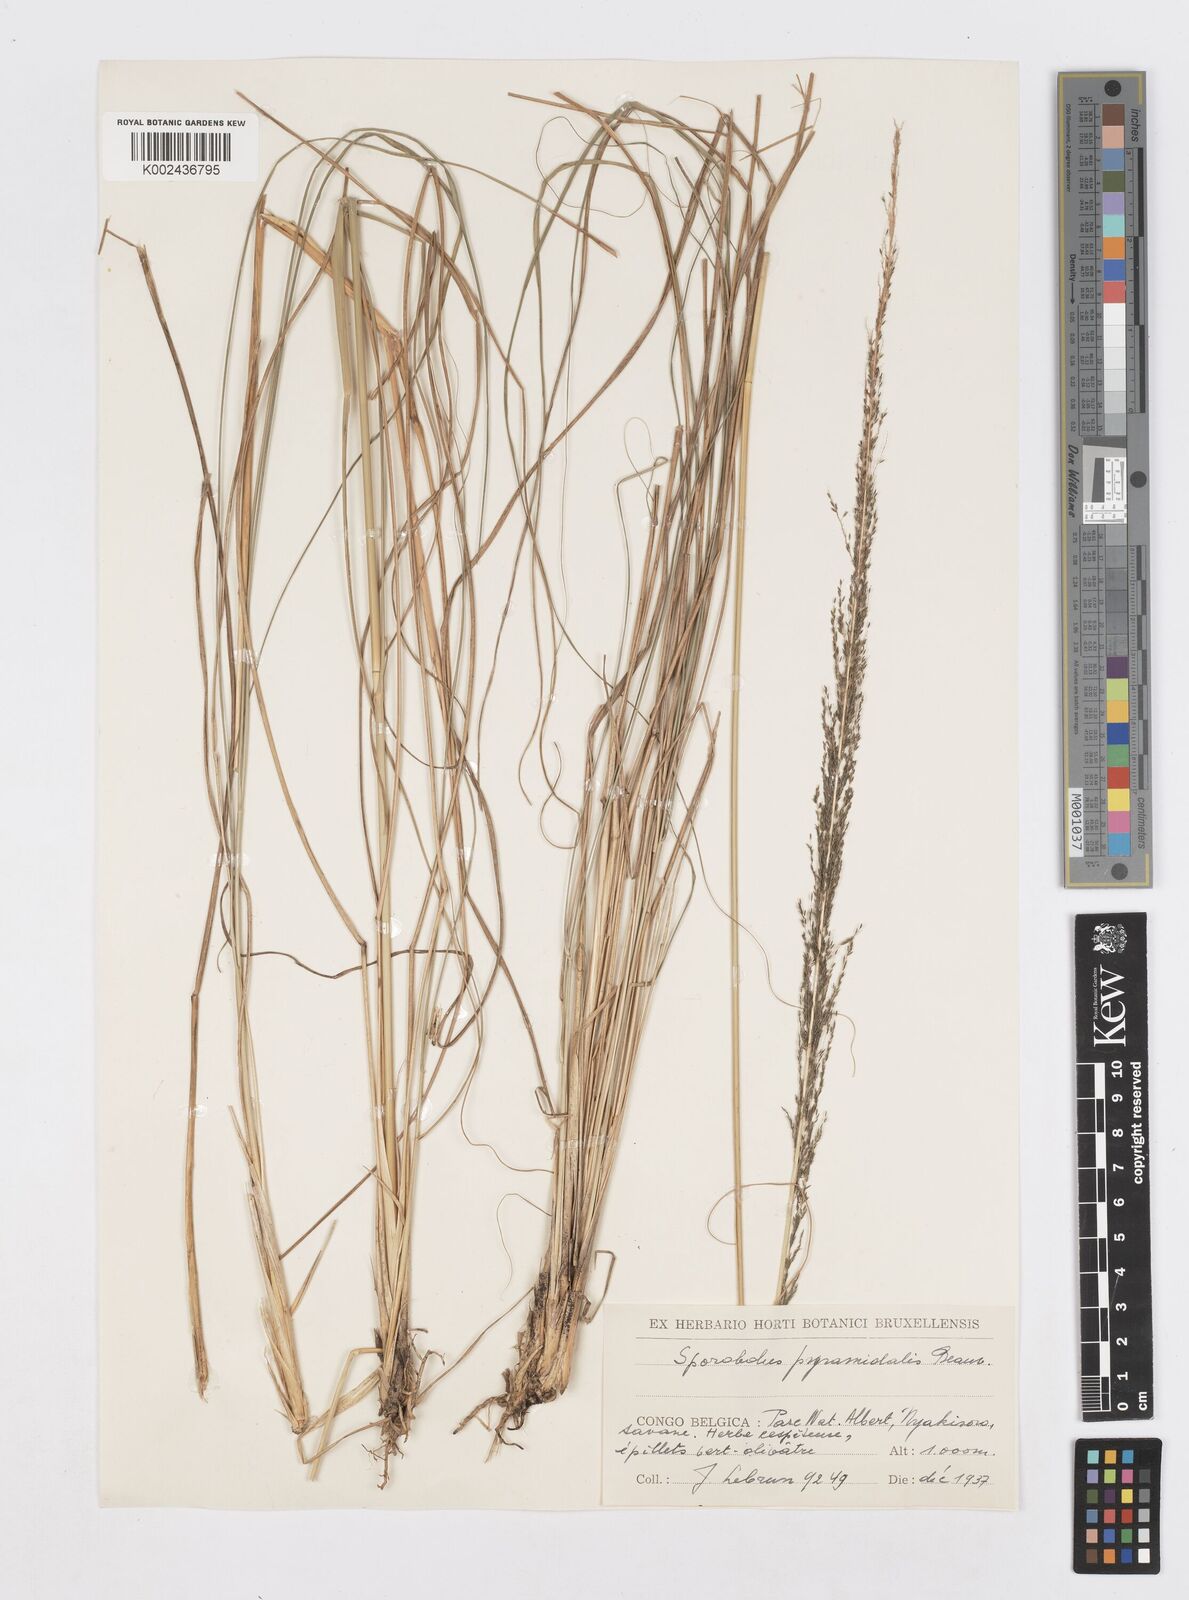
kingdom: Plantae
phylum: Tracheophyta
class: Liliopsida
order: Poales
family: Poaceae
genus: Sporobolus
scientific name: Sporobolus pyramidalis
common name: West indian dropseed
